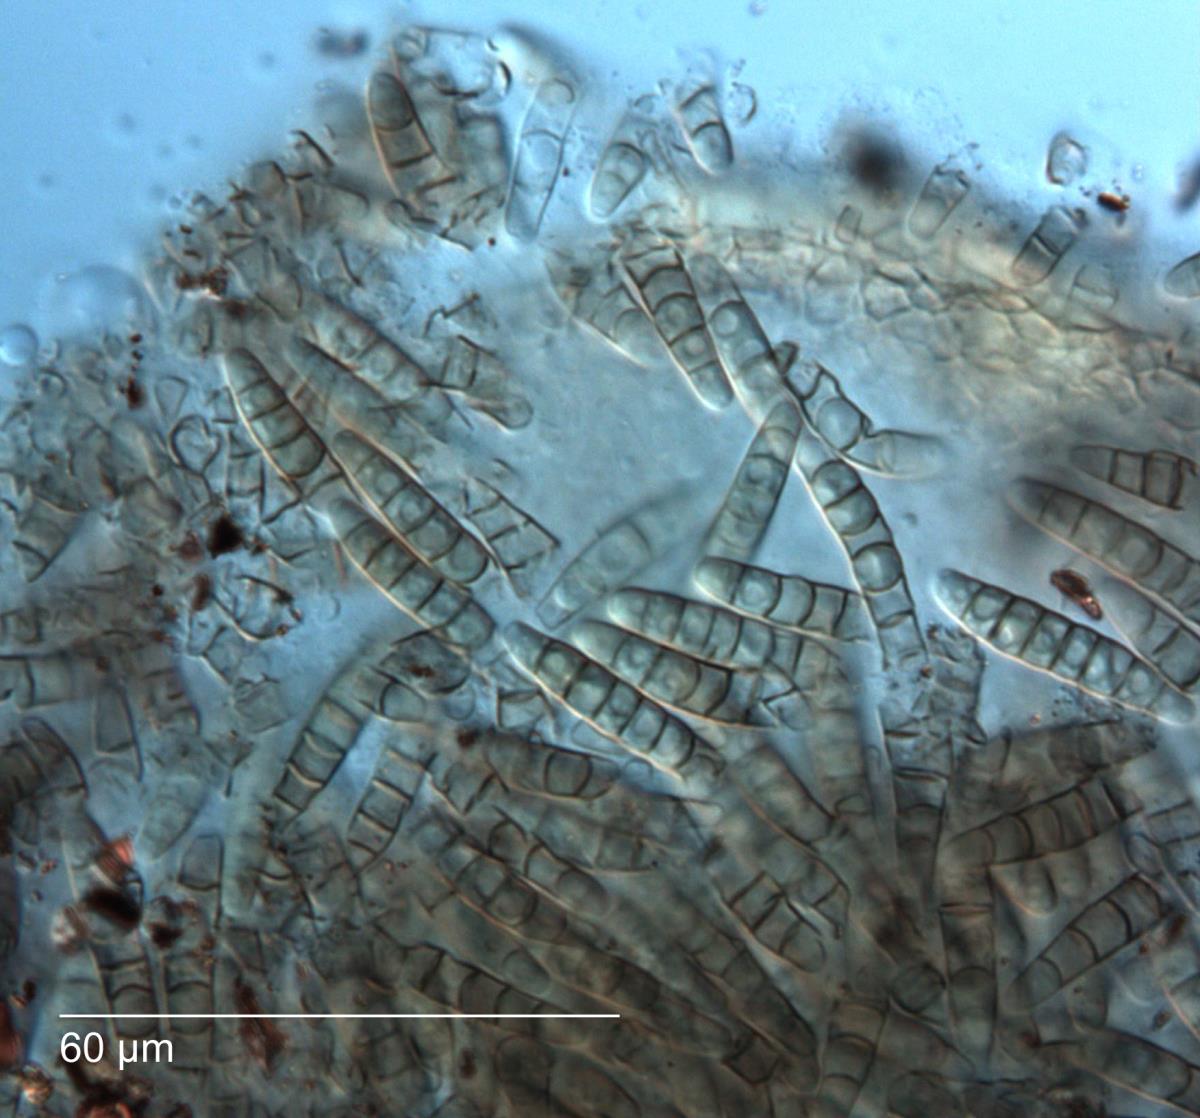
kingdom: Fungi
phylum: Ascomycota
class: Dothideomycetes
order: Pleosporales
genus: Phaeostagonospora
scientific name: Phaeostagonospora
